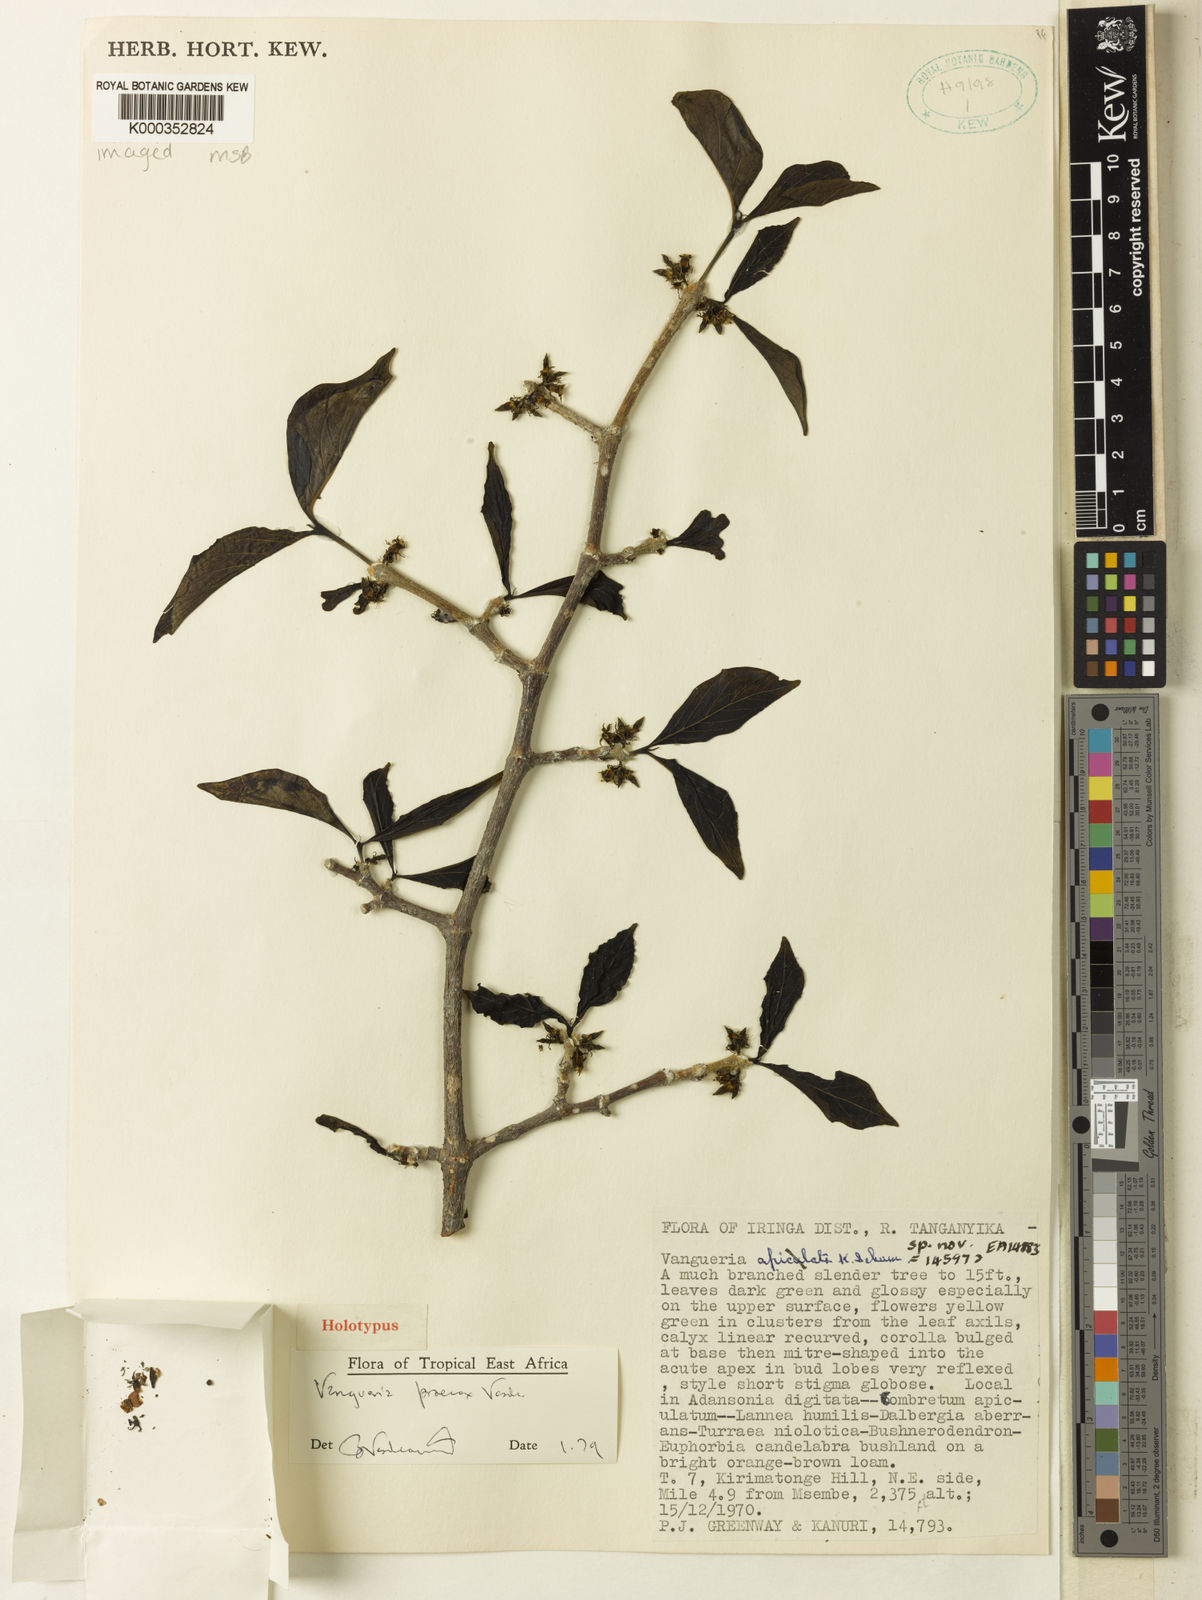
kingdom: Plantae
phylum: Tracheophyta
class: Magnoliopsida
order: Gentianales
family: Rubiaceae
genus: Vangueria
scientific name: Vangueria praecox
